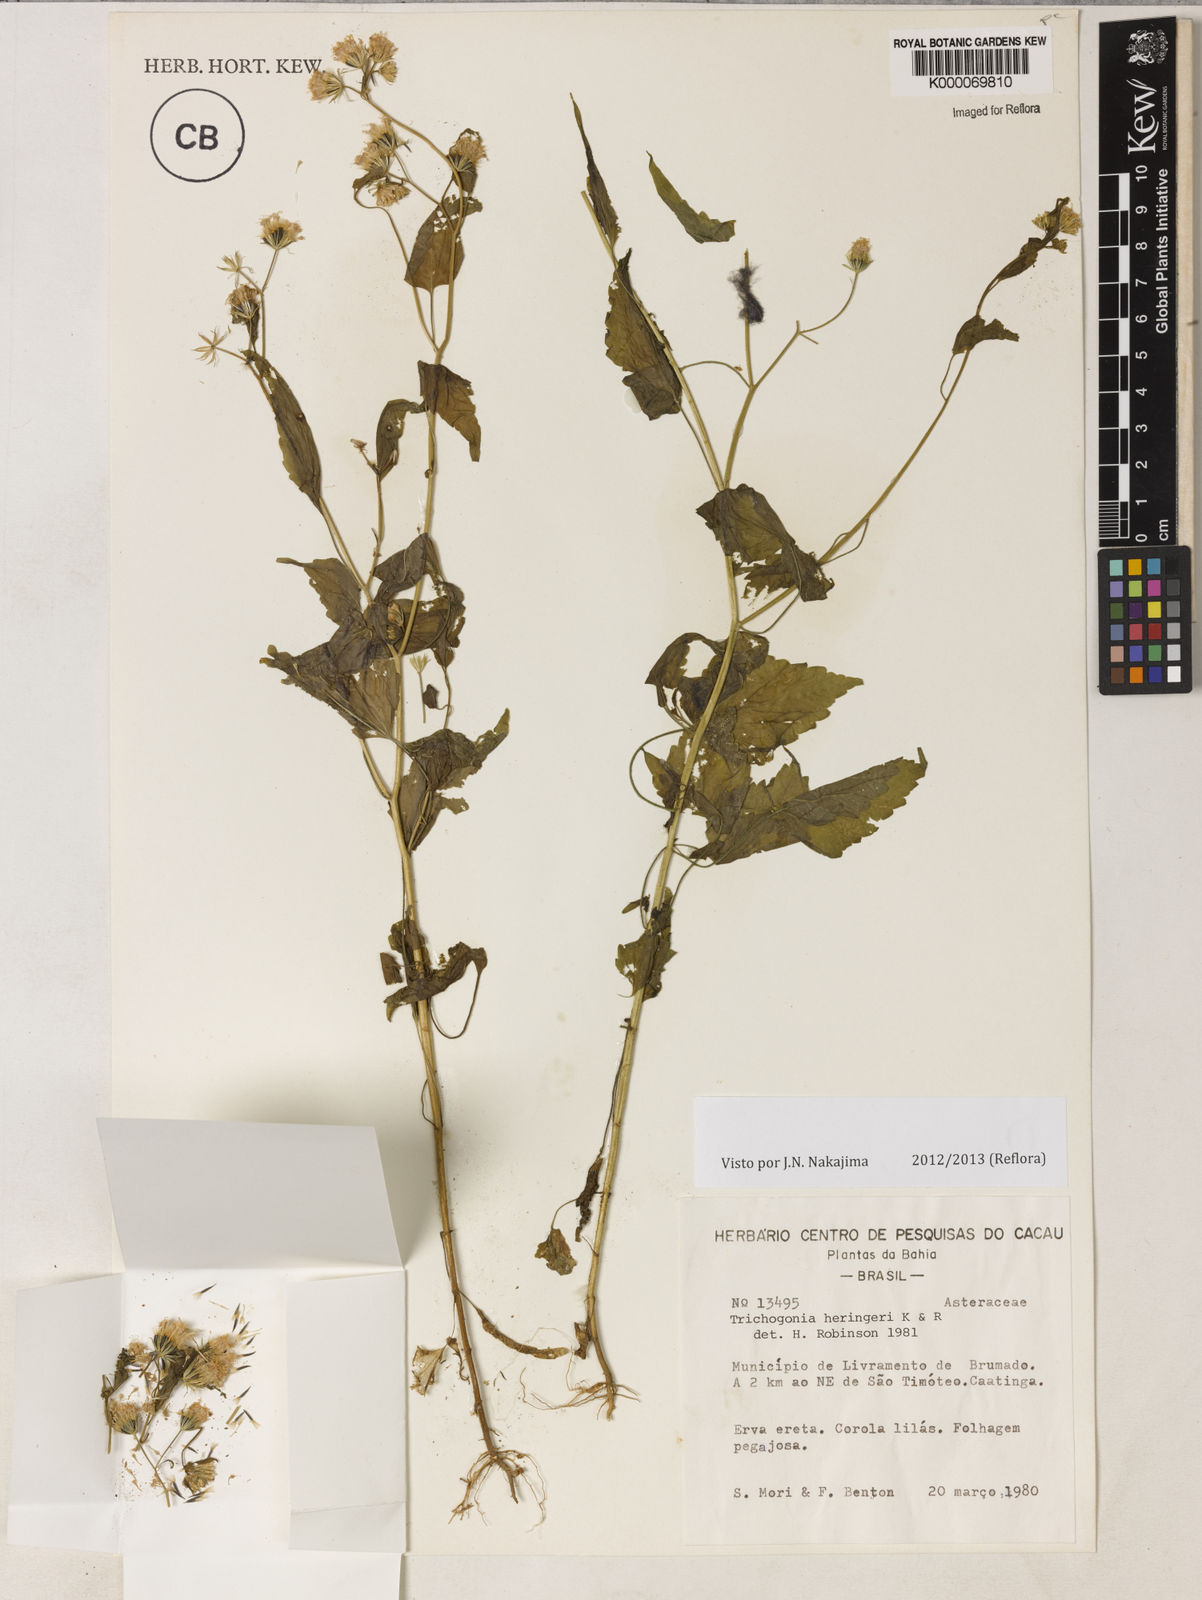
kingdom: Plantae
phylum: Tracheophyta
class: Magnoliopsida
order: Asterales
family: Asteraceae
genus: Trichogonia
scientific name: Trichogonia heringeri
